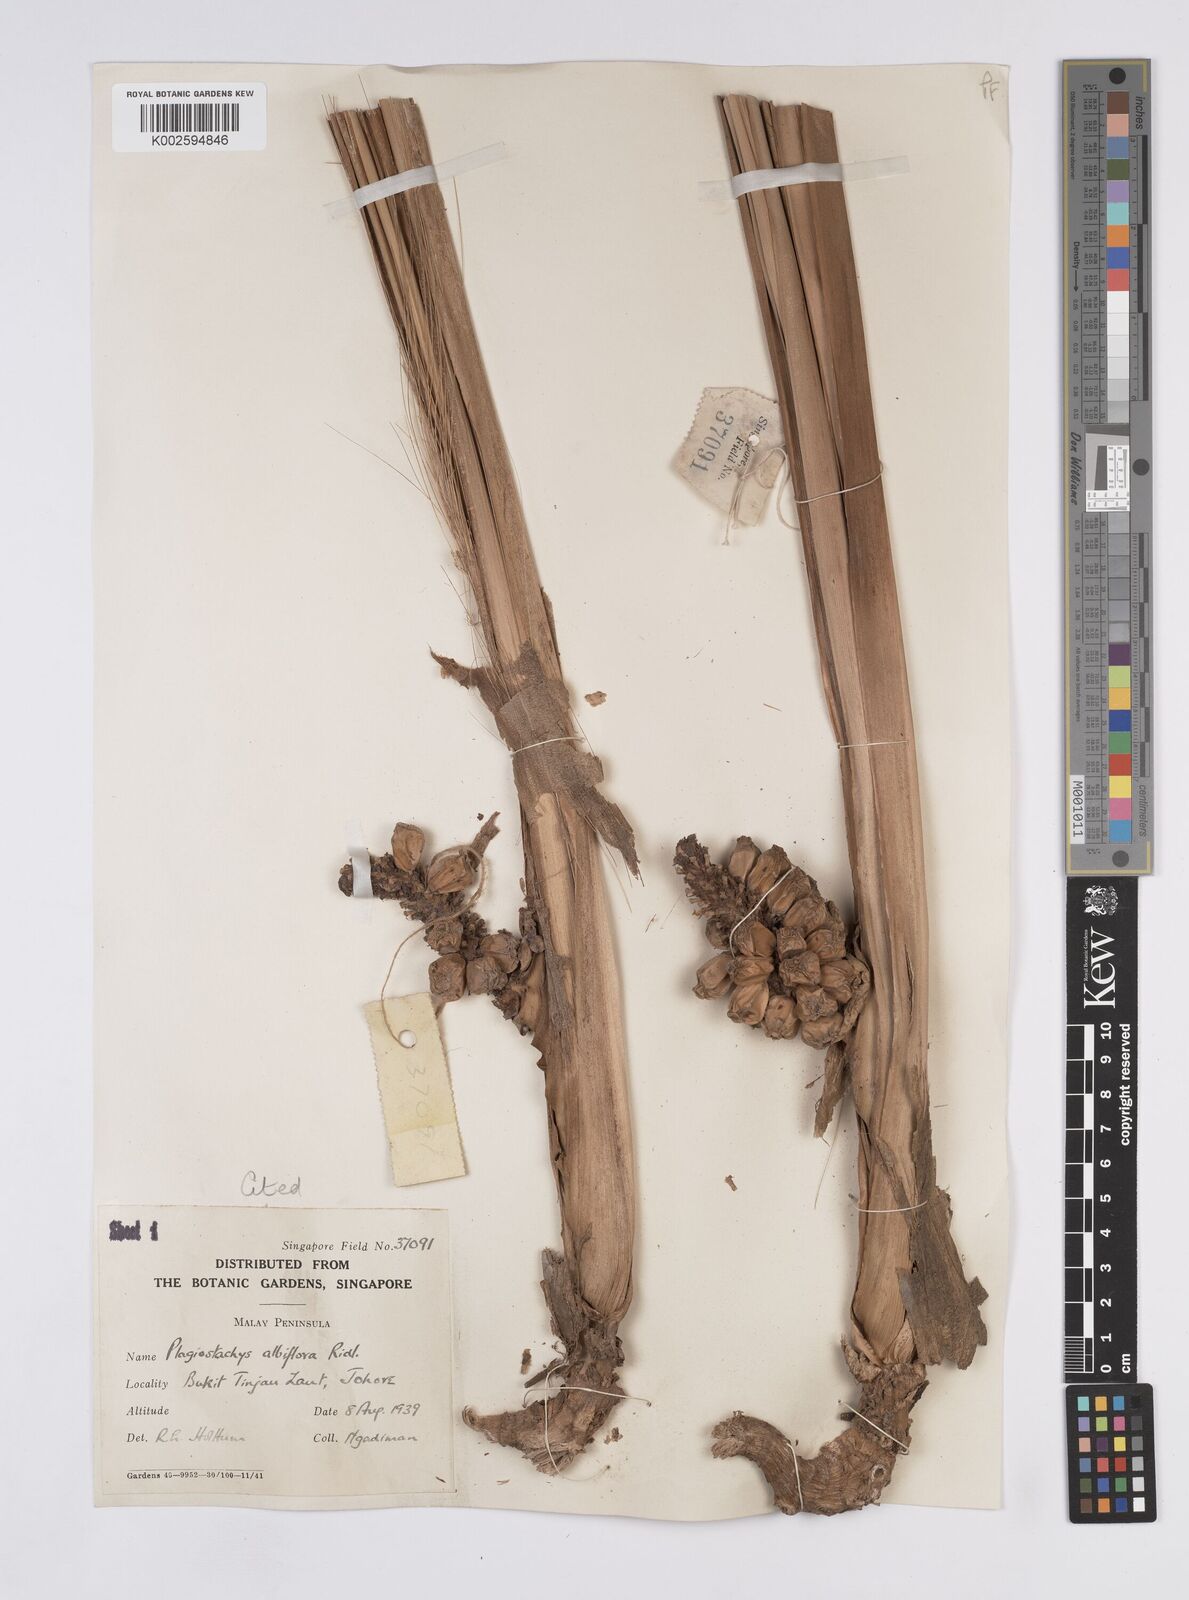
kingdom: Plantae
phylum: Tracheophyta
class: Liliopsida
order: Zingiberales
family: Zingiberaceae
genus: Plagiostachys
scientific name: Plagiostachys albiflora
